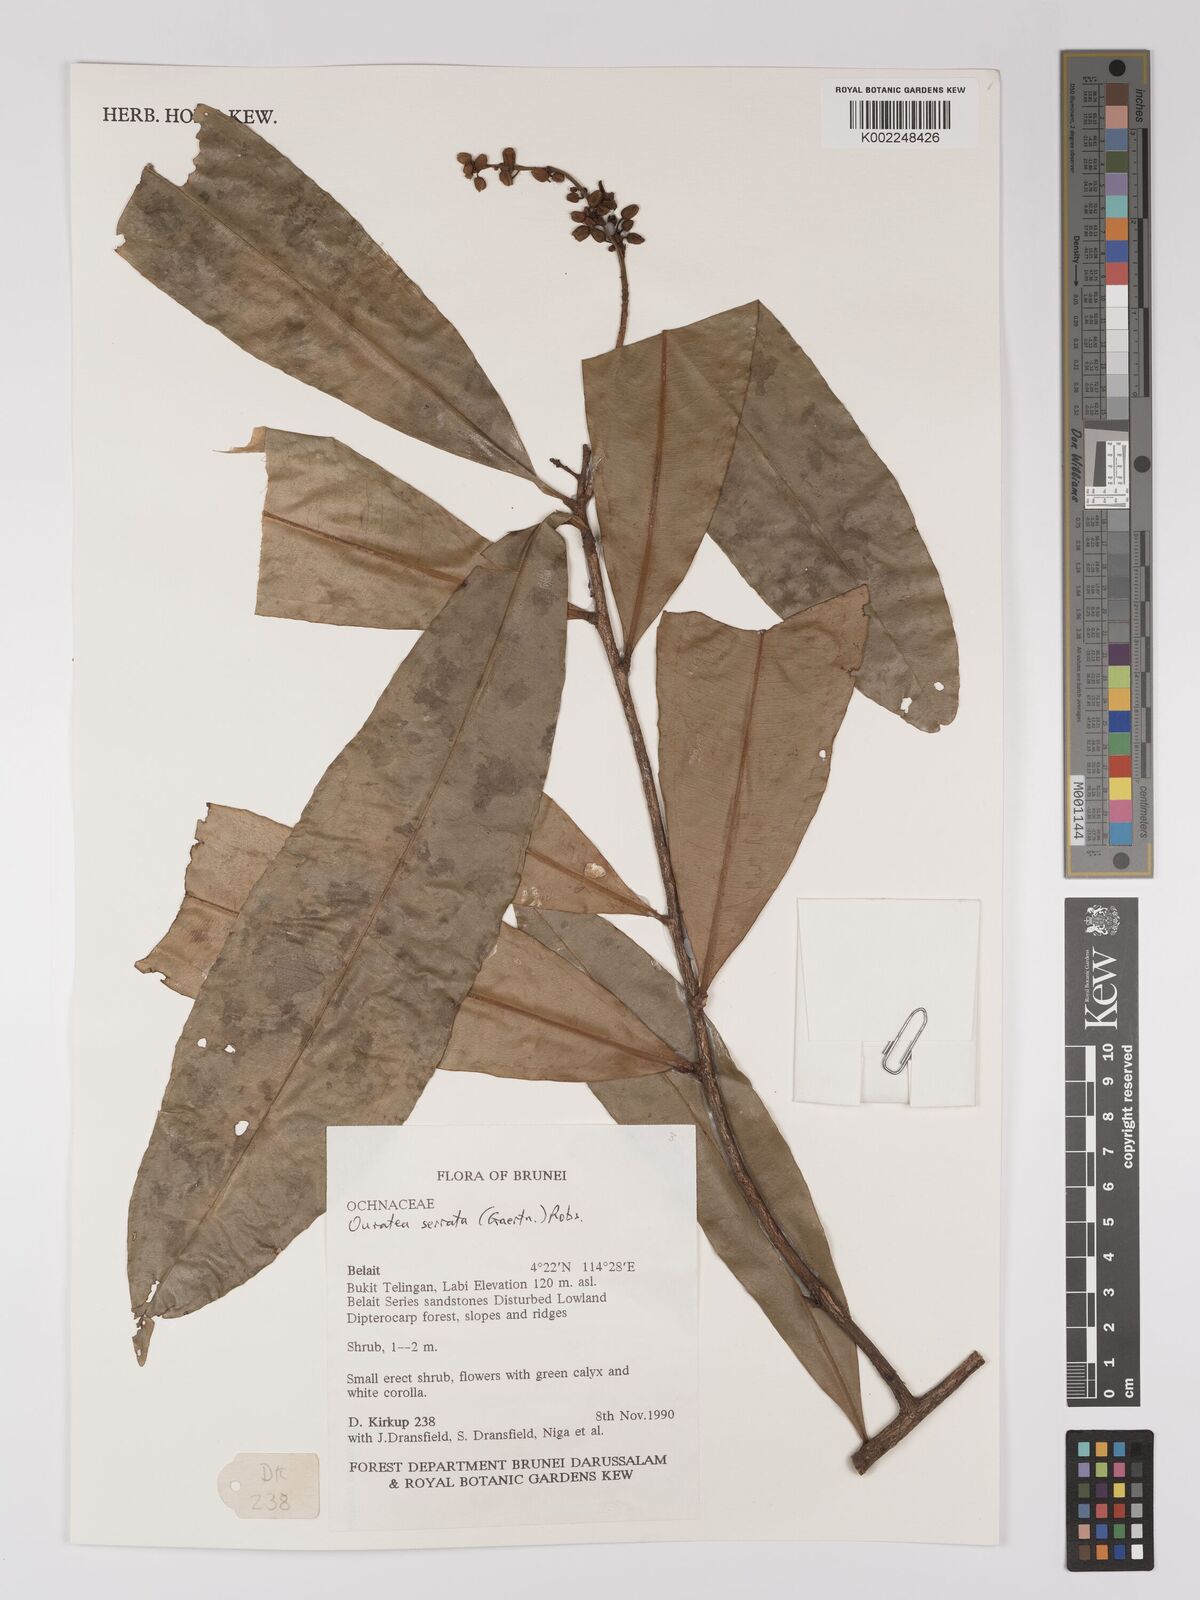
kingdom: Plantae
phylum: Tracheophyta
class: Magnoliopsida
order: Malpighiales
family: Ochnaceae
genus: Gomphia
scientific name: Gomphia serrata
